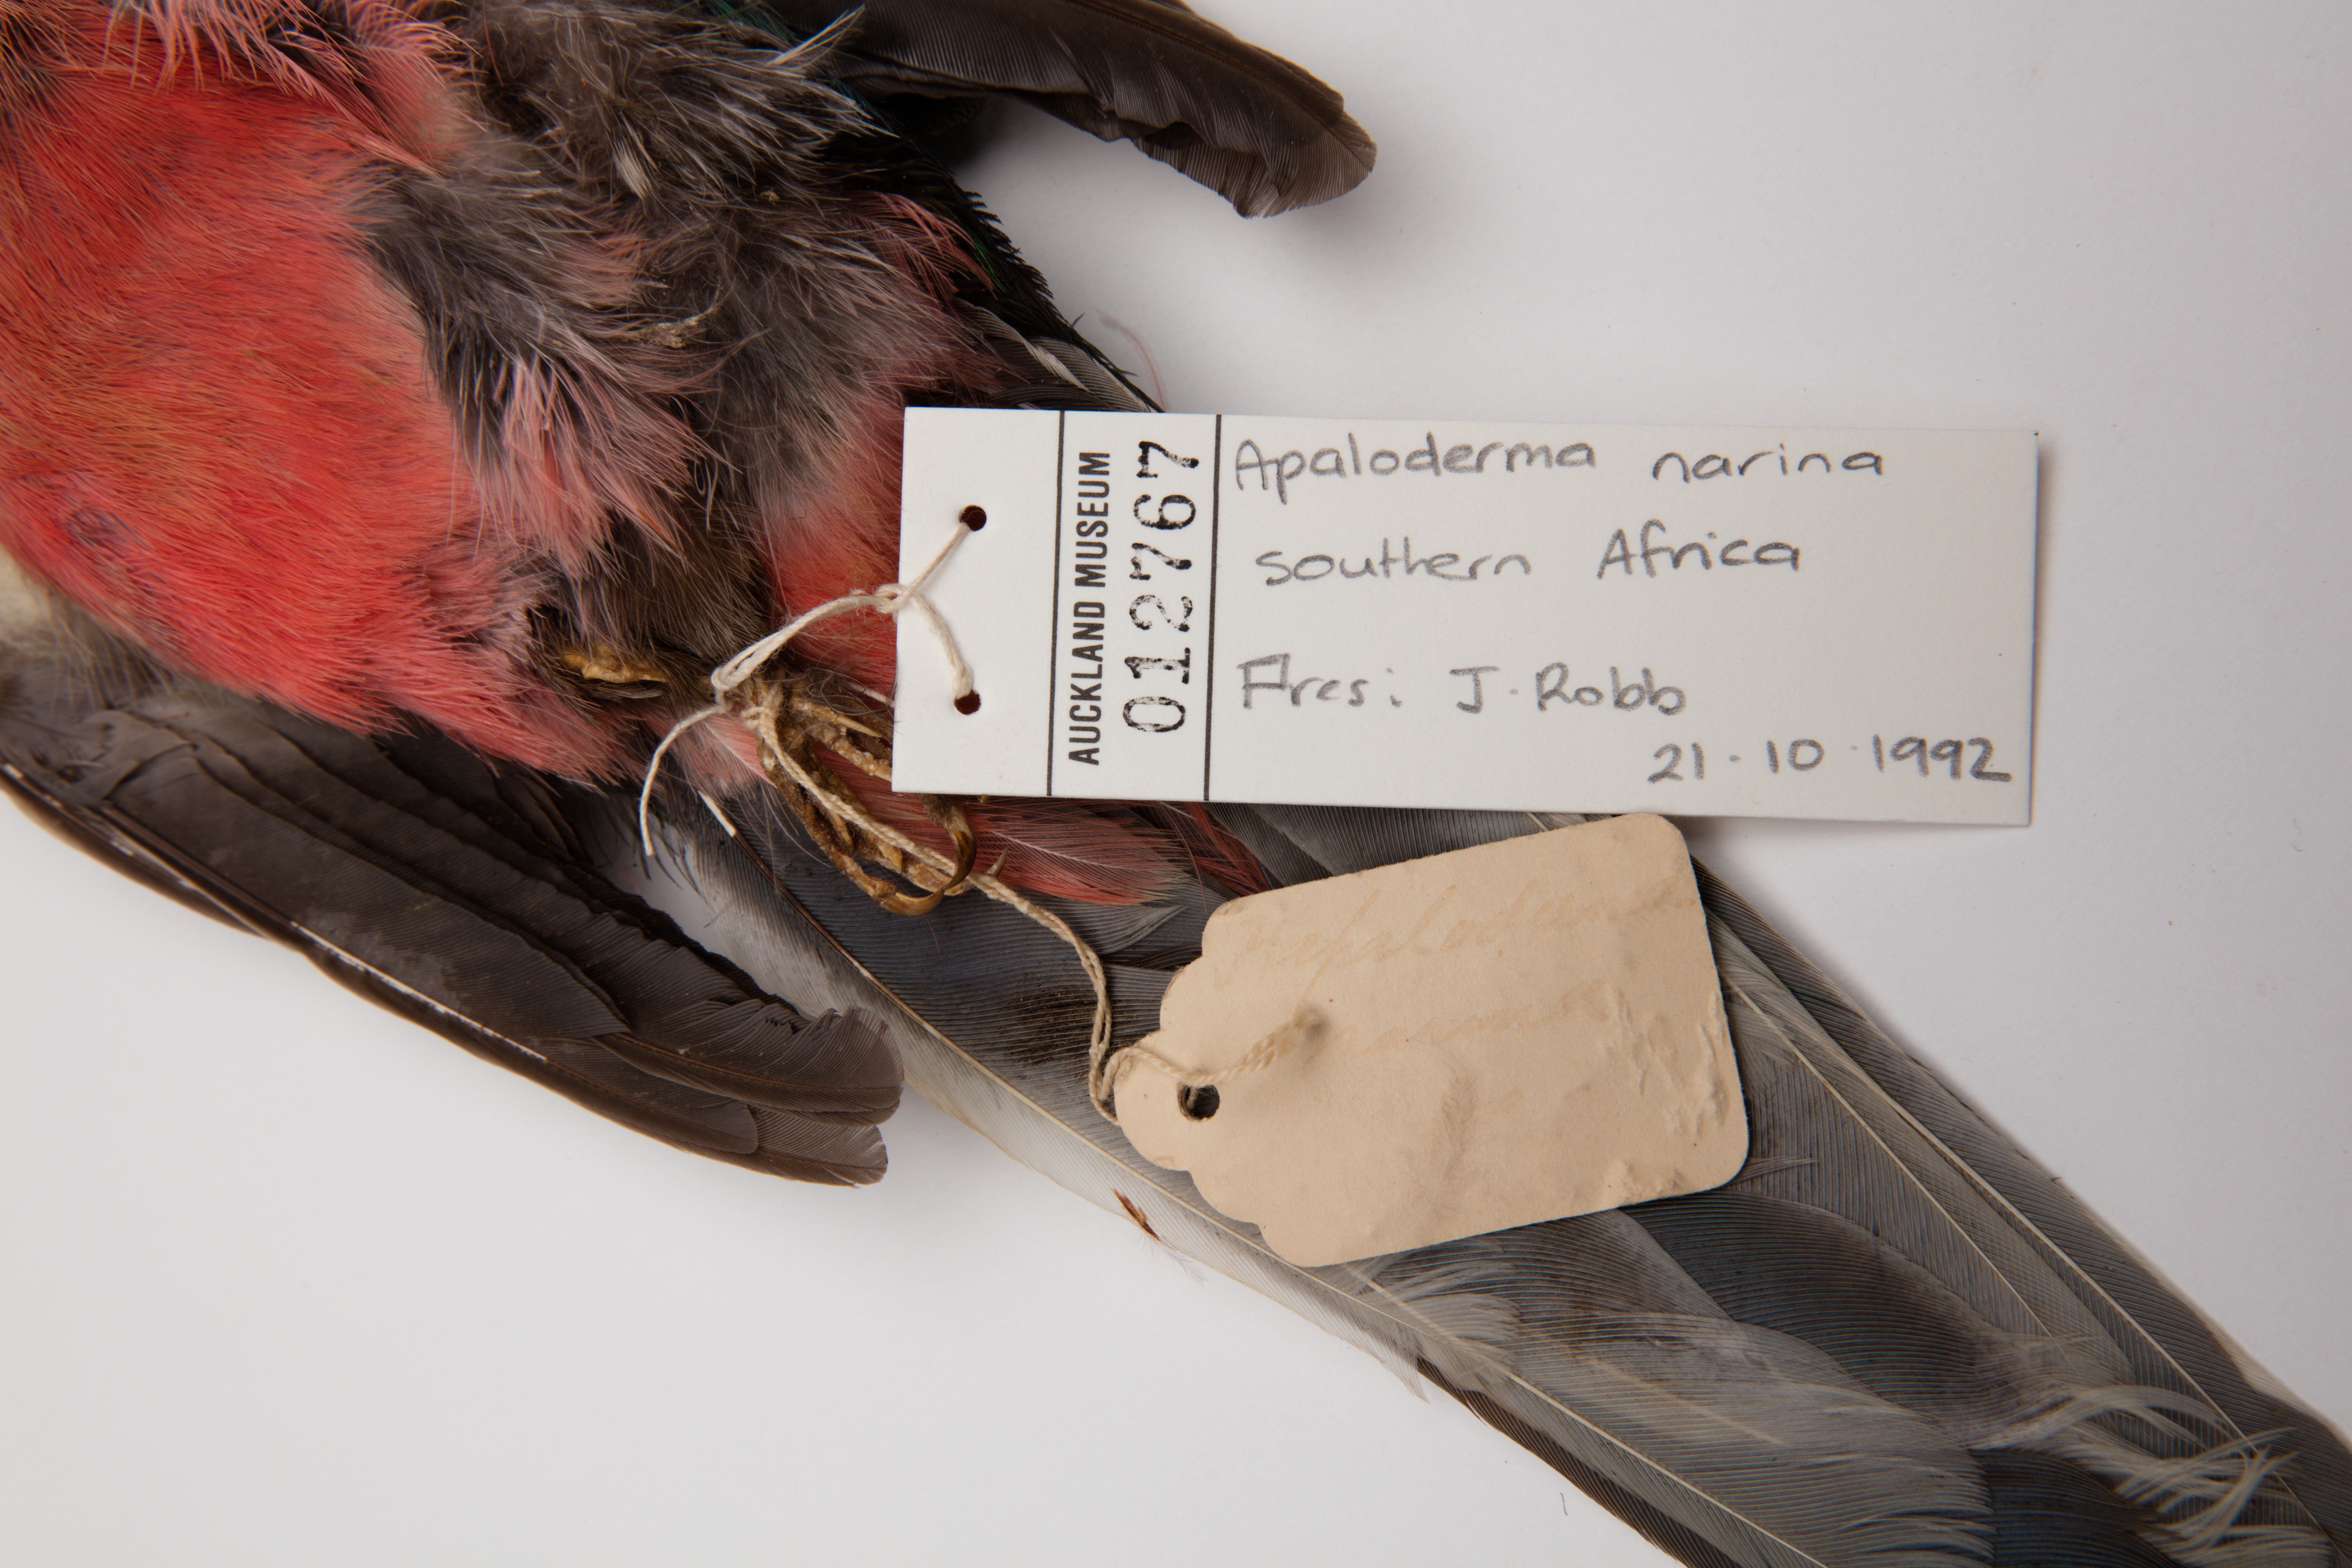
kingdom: Animalia
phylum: Chordata
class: Aves
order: Trogoniformes
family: Trogonidae
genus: Apaloderma
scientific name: Apaloderma narina
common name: Narina trogon
